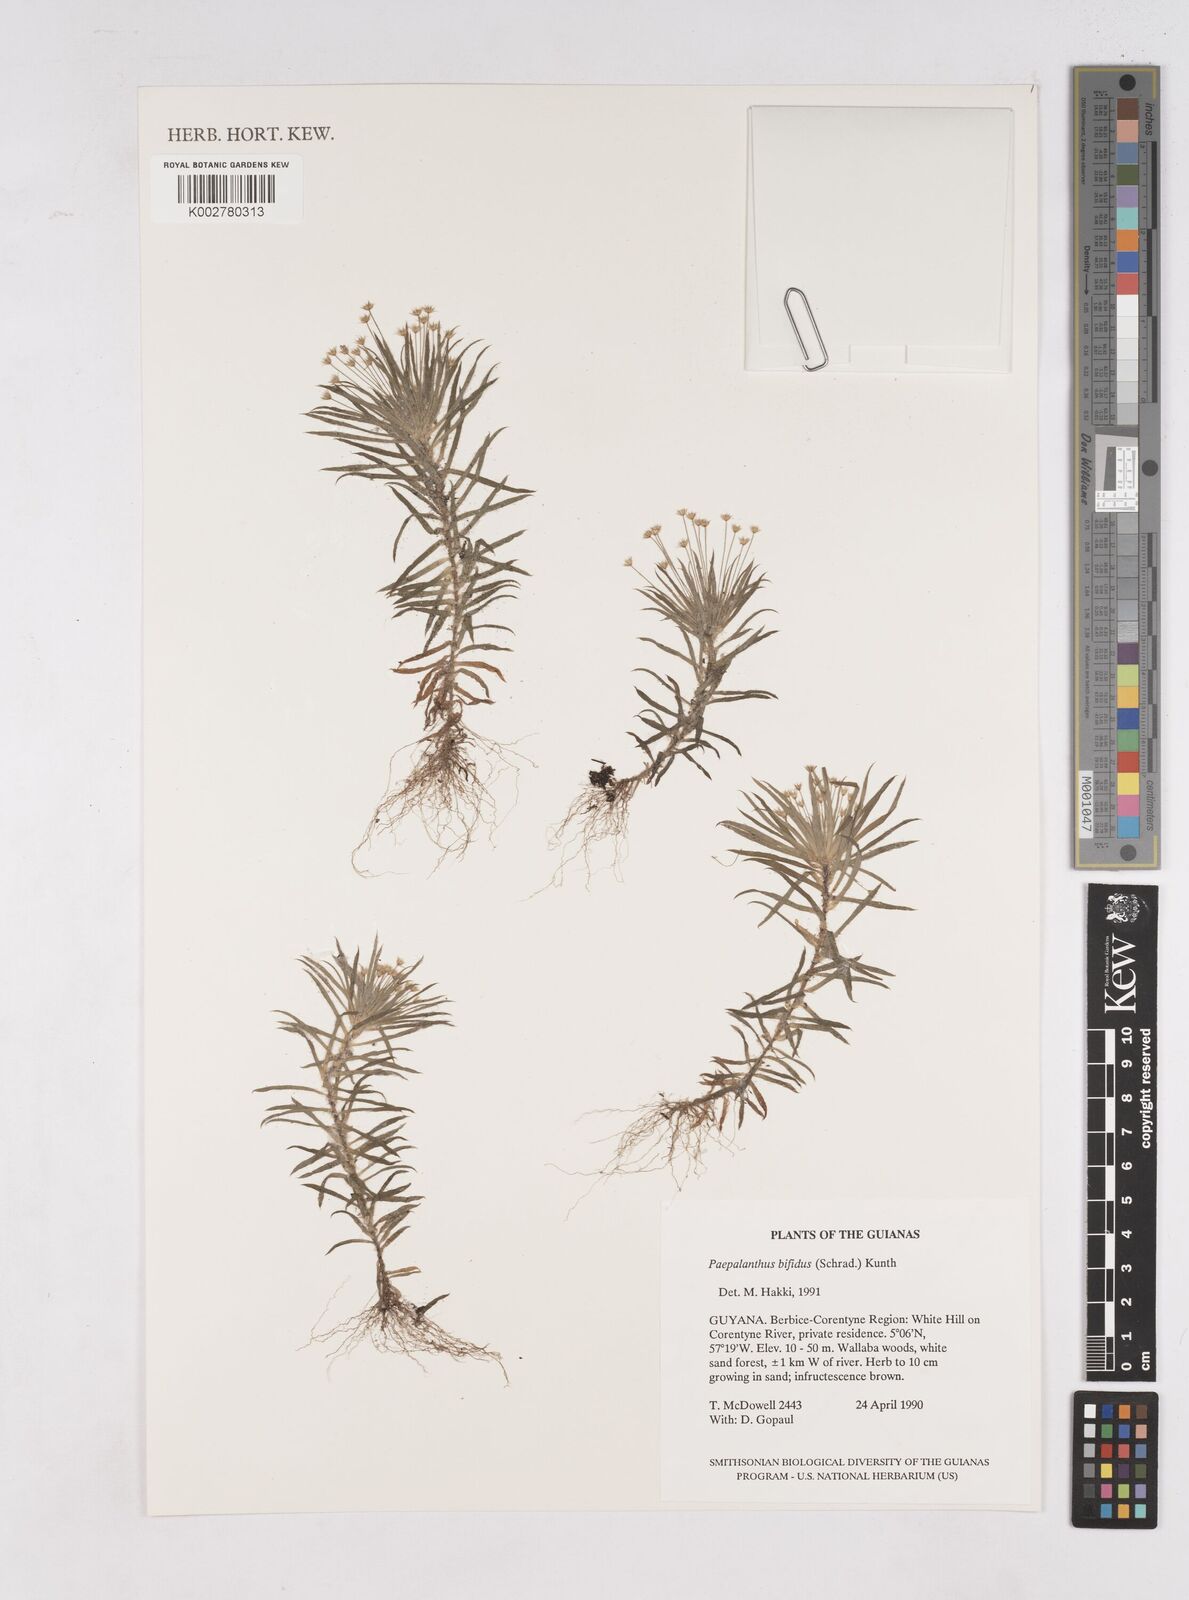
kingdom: Plantae
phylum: Tracheophyta
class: Liliopsida
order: Poales
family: Eriocaulaceae
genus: Paepalanthus
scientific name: Paepalanthus bifidus
